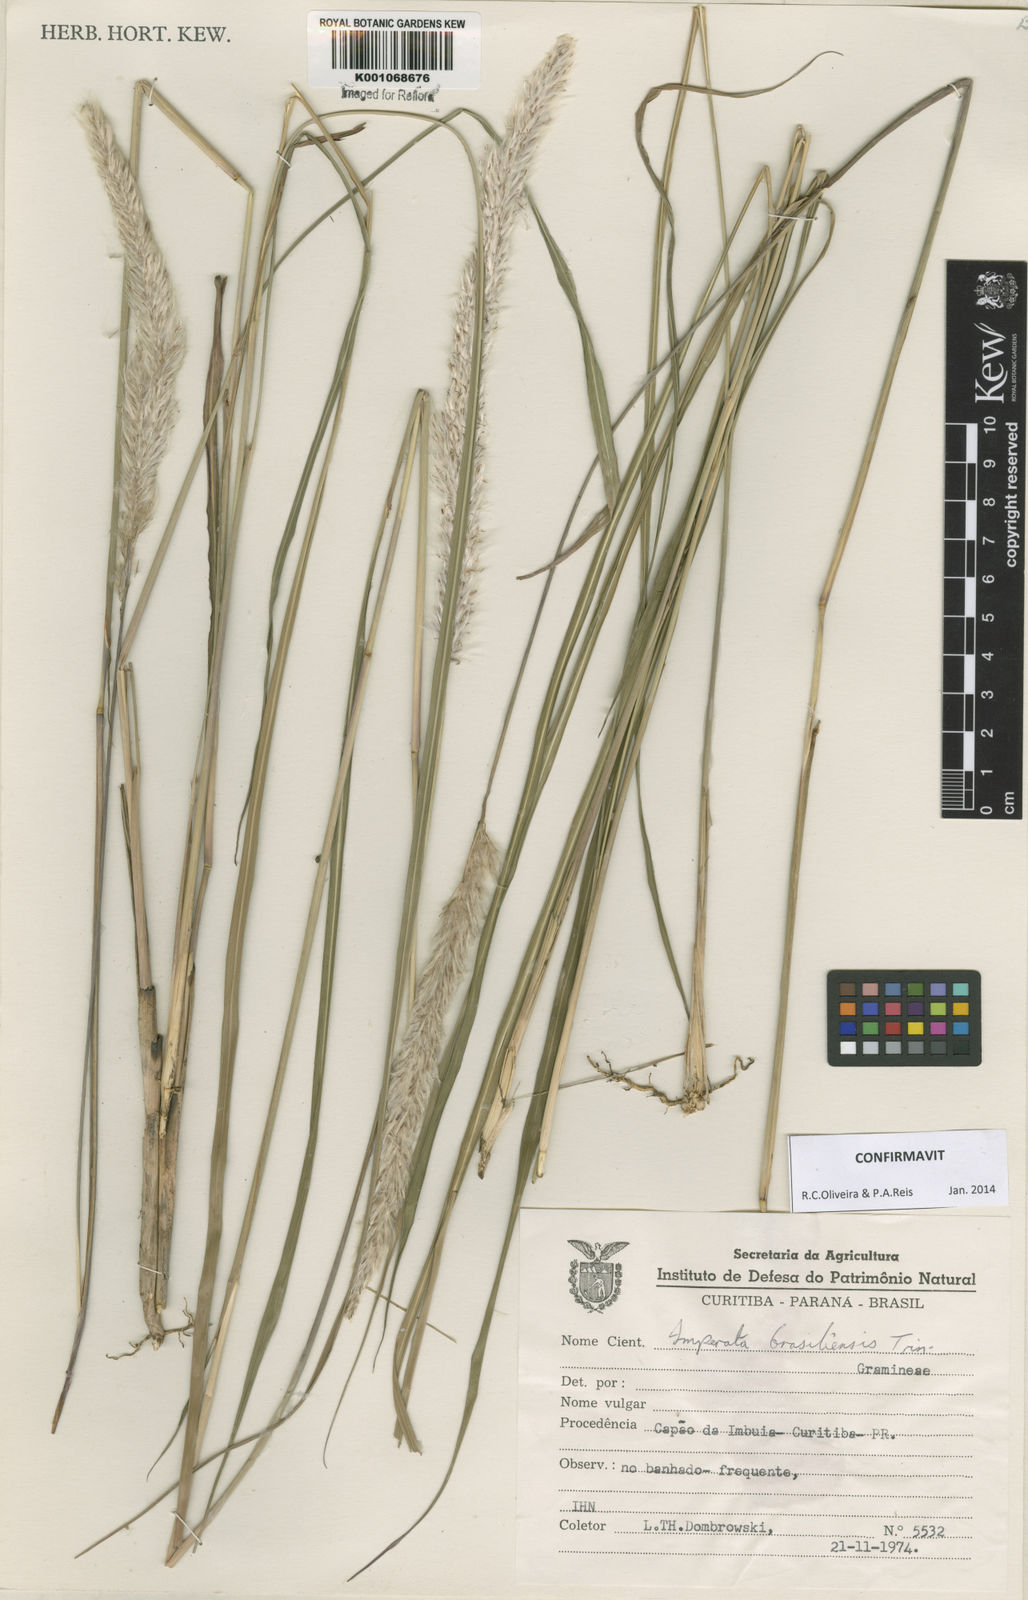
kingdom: Plantae
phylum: Tracheophyta
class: Liliopsida
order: Poales
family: Poaceae
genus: Imperata
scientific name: Imperata brasiliensis
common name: Brazilian satintail
